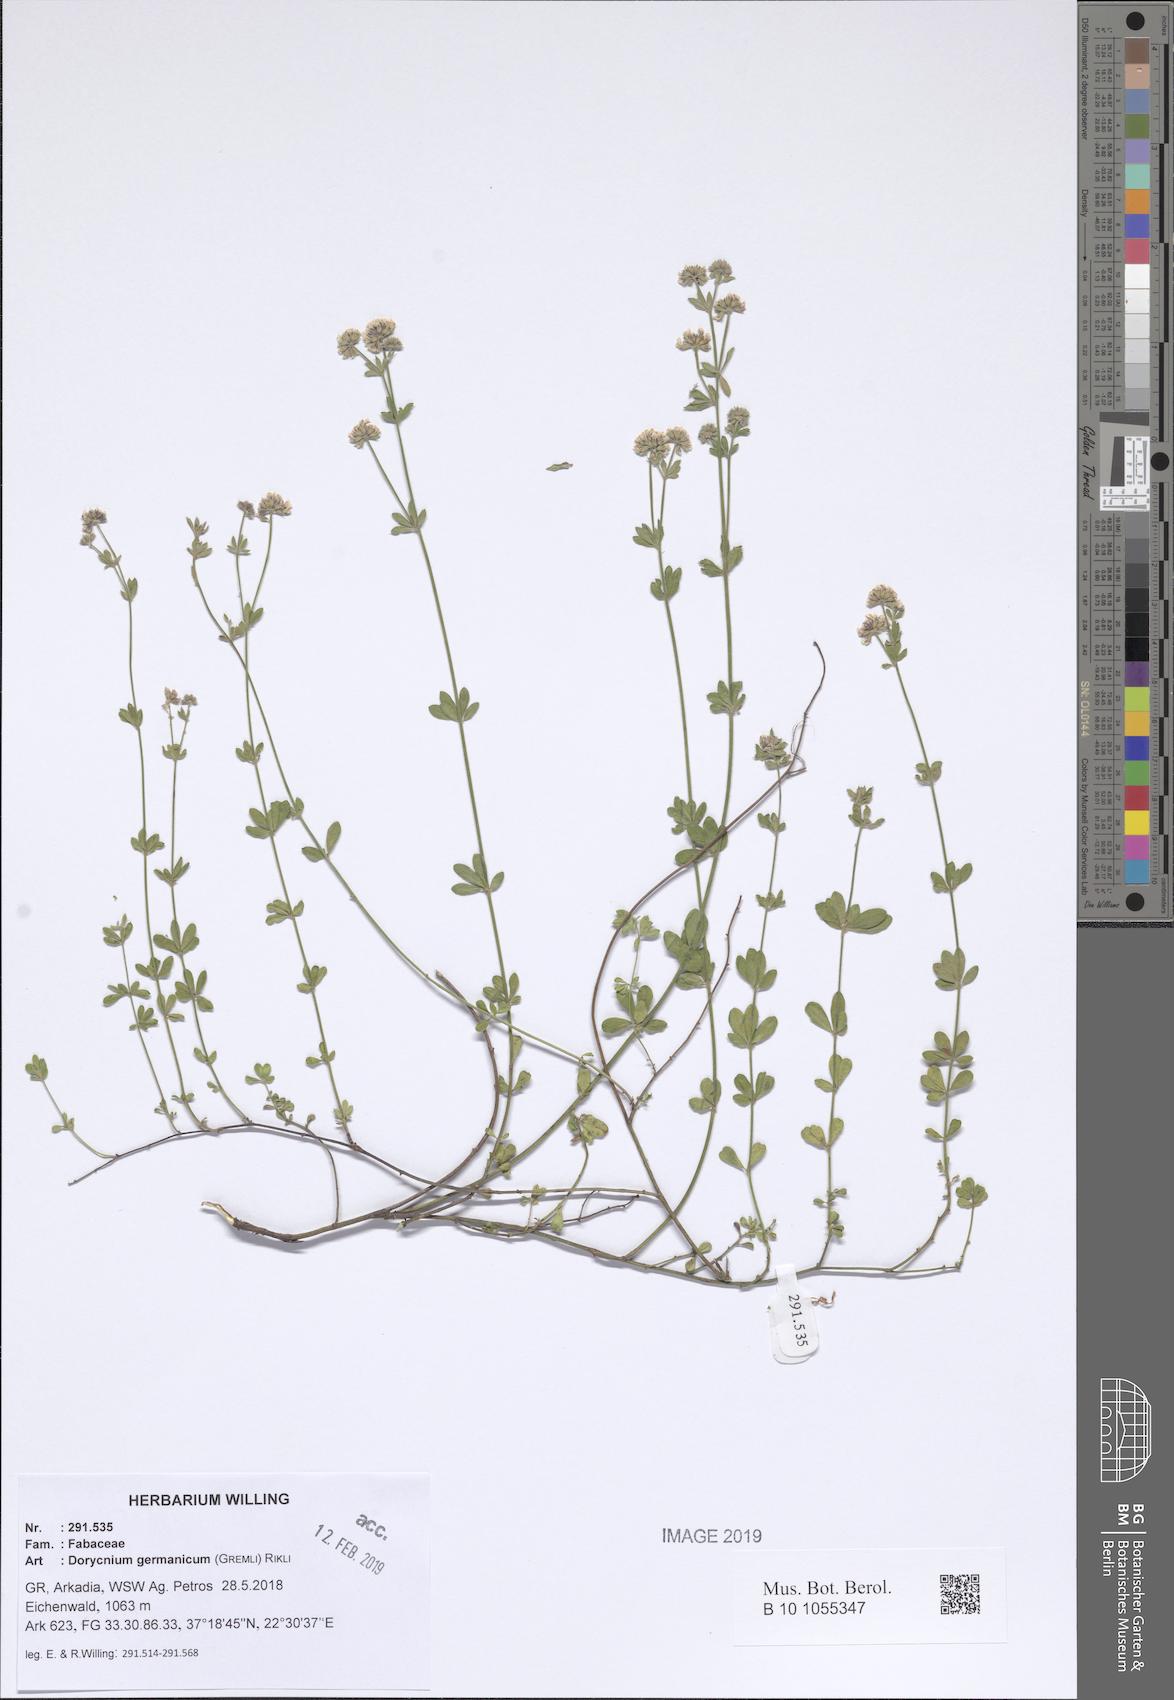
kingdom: Plantae
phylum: Tracheophyta
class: Magnoliopsida
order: Fabales
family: Fabaceae
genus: Lotus
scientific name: Lotus germanicus
